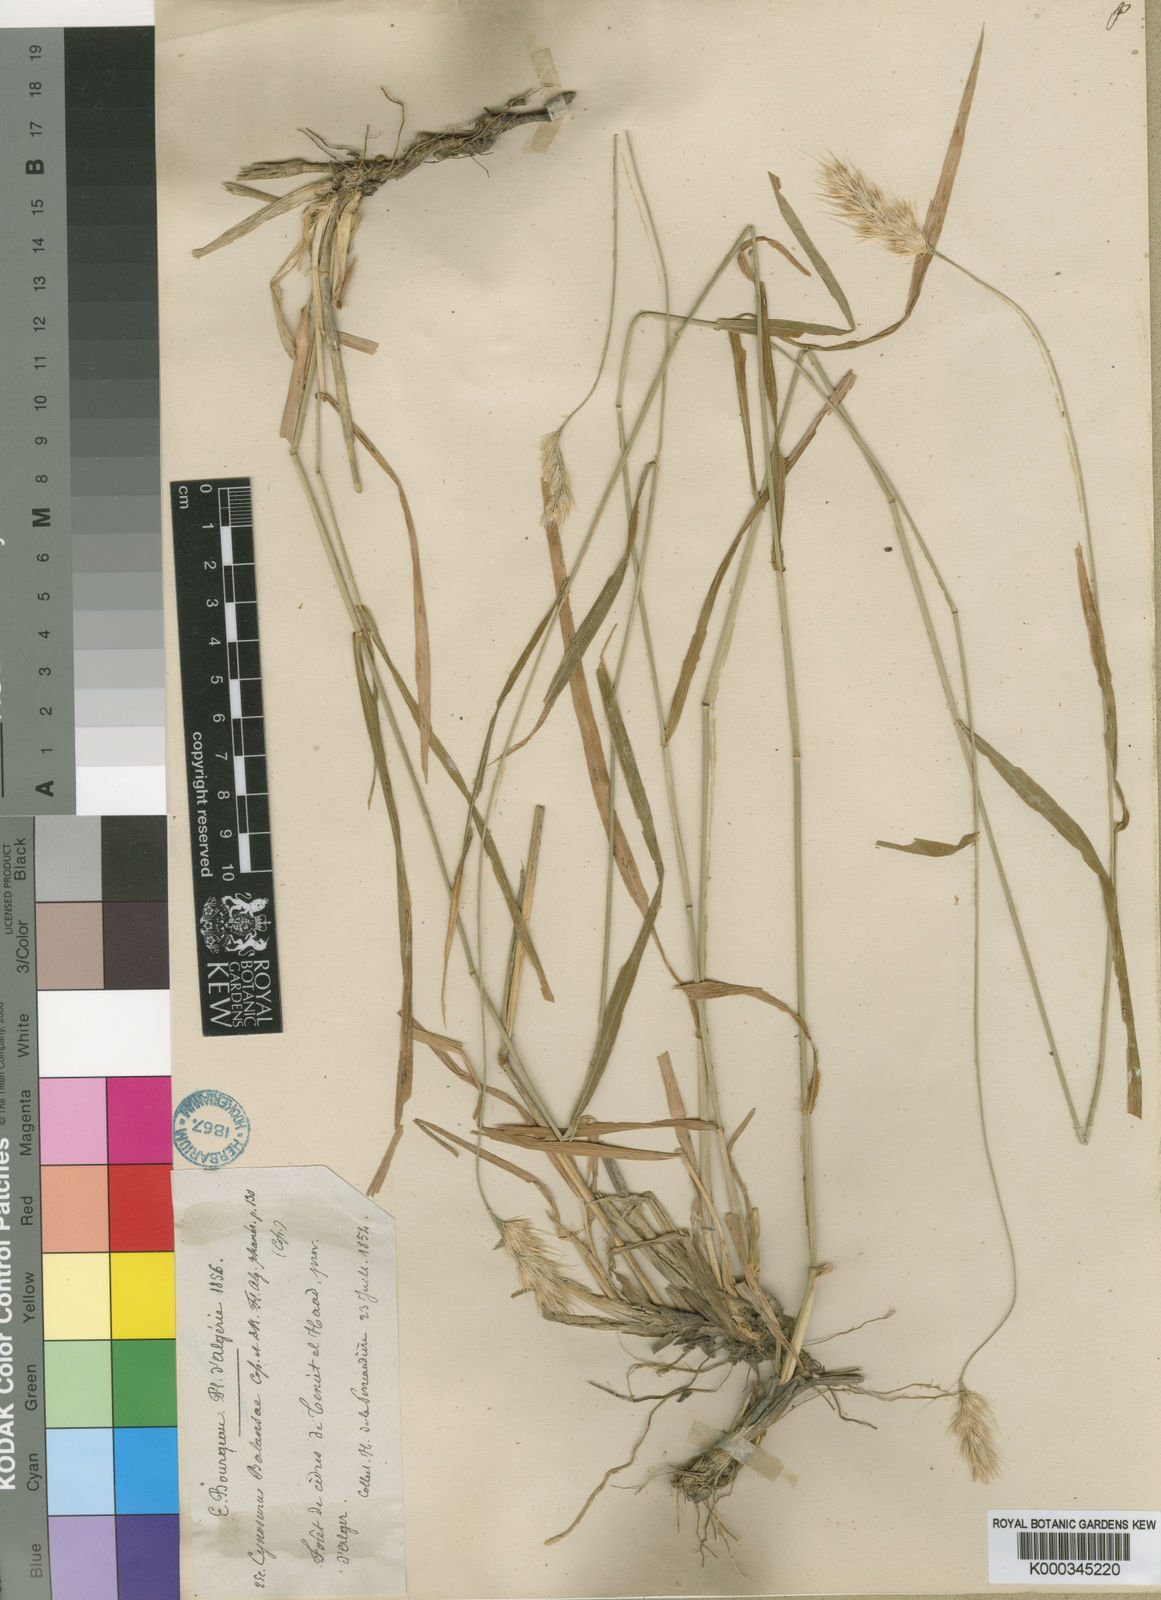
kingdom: Plantae
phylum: Tracheophyta
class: Liliopsida
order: Poales
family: Poaceae
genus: Cynosurus
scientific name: Cynosurus balansae
